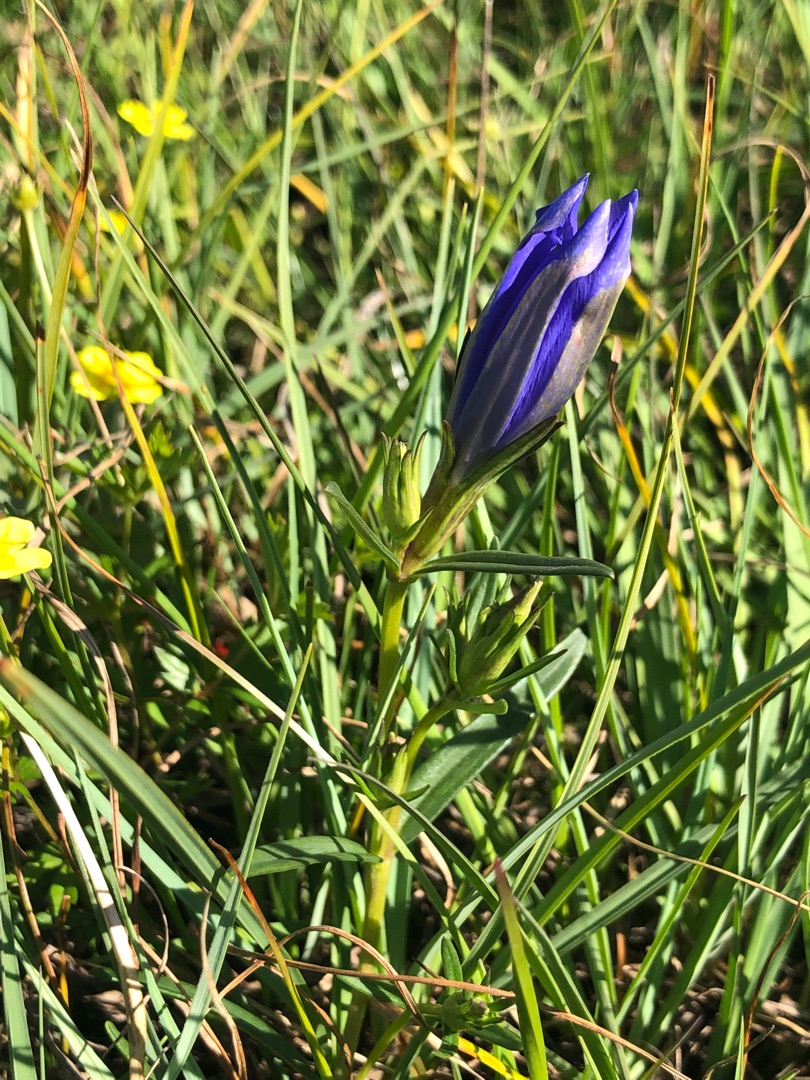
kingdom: Plantae
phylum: Tracheophyta
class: Magnoliopsida
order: Gentianales
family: Gentianaceae
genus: Gentiana
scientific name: Gentiana pneumonanthe
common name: Klokke-ensian
